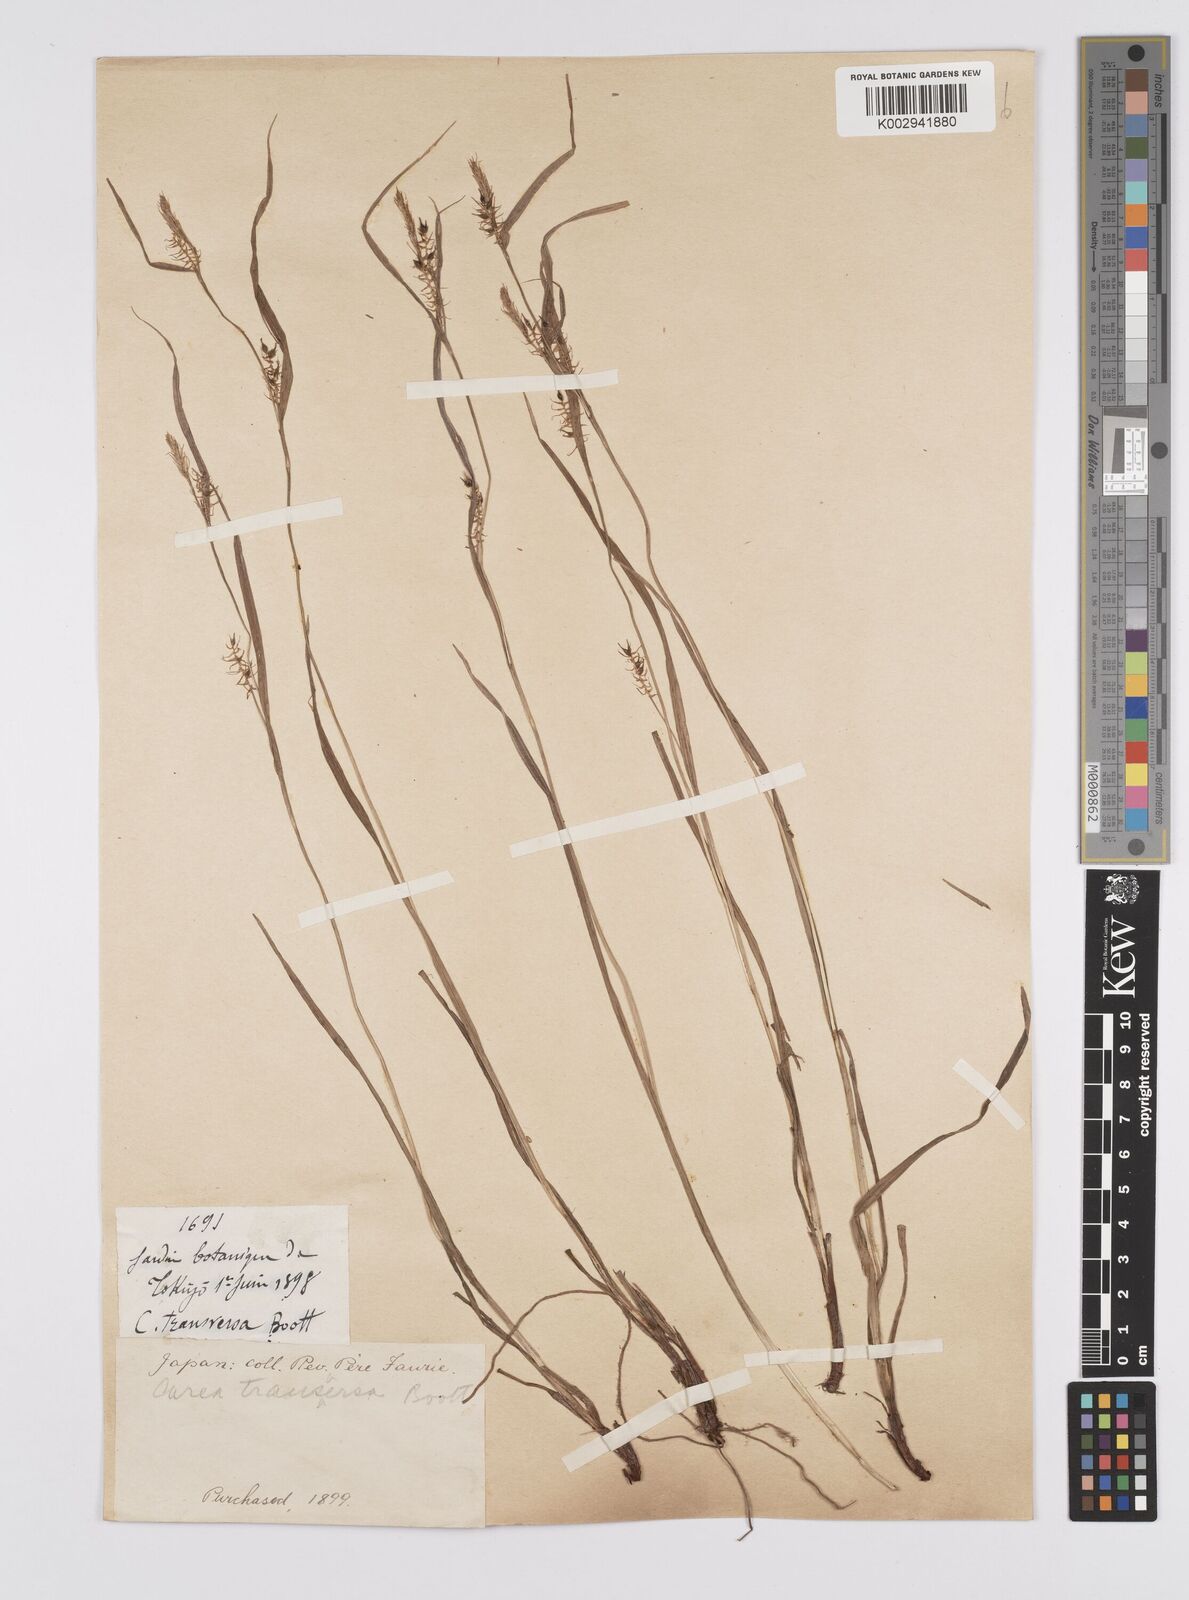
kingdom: Plantae
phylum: Tracheophyta
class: Liliopsida
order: Poales
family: Cyperaceae
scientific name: Cyperaceae
